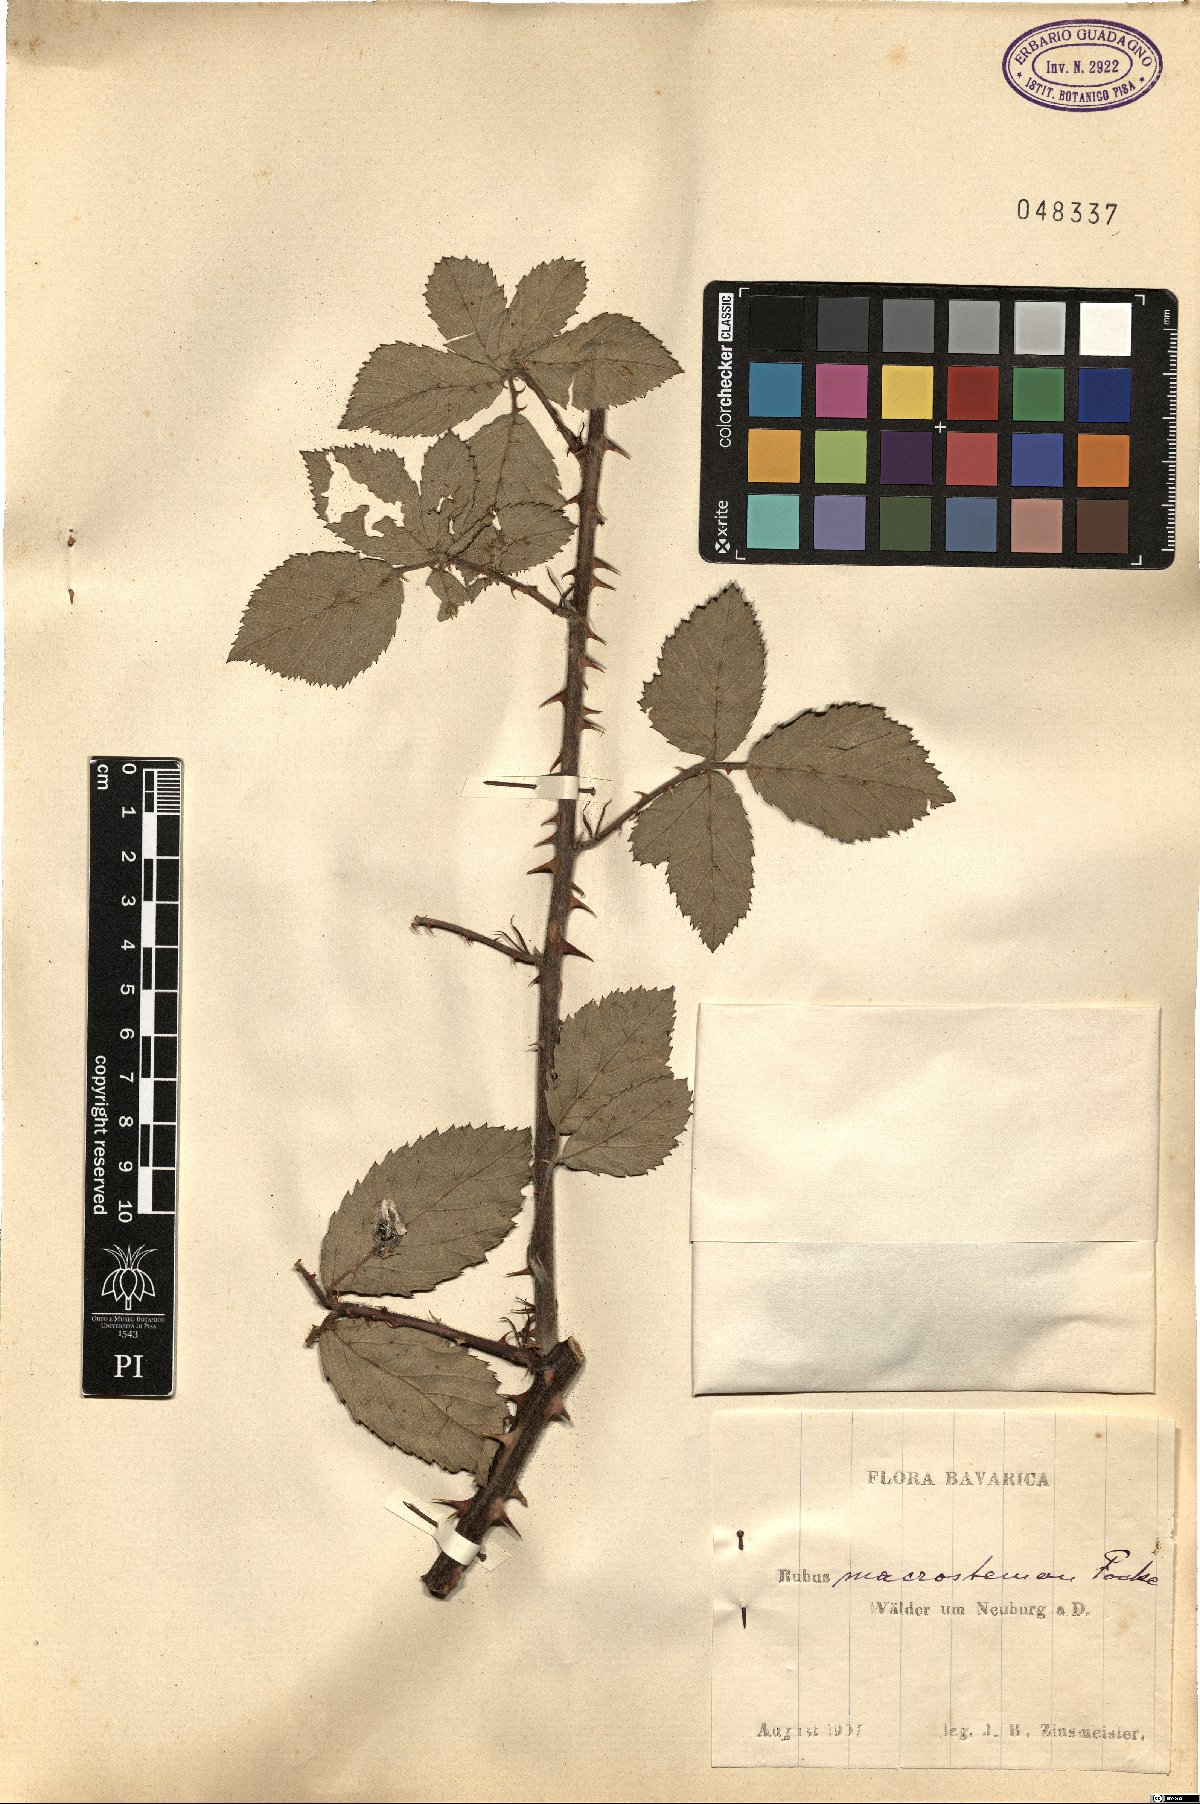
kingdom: Plantae
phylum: Tracheophyta
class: Magnoliopsida
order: Rosales
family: Rosaceae
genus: Rubus
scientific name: Rubus
